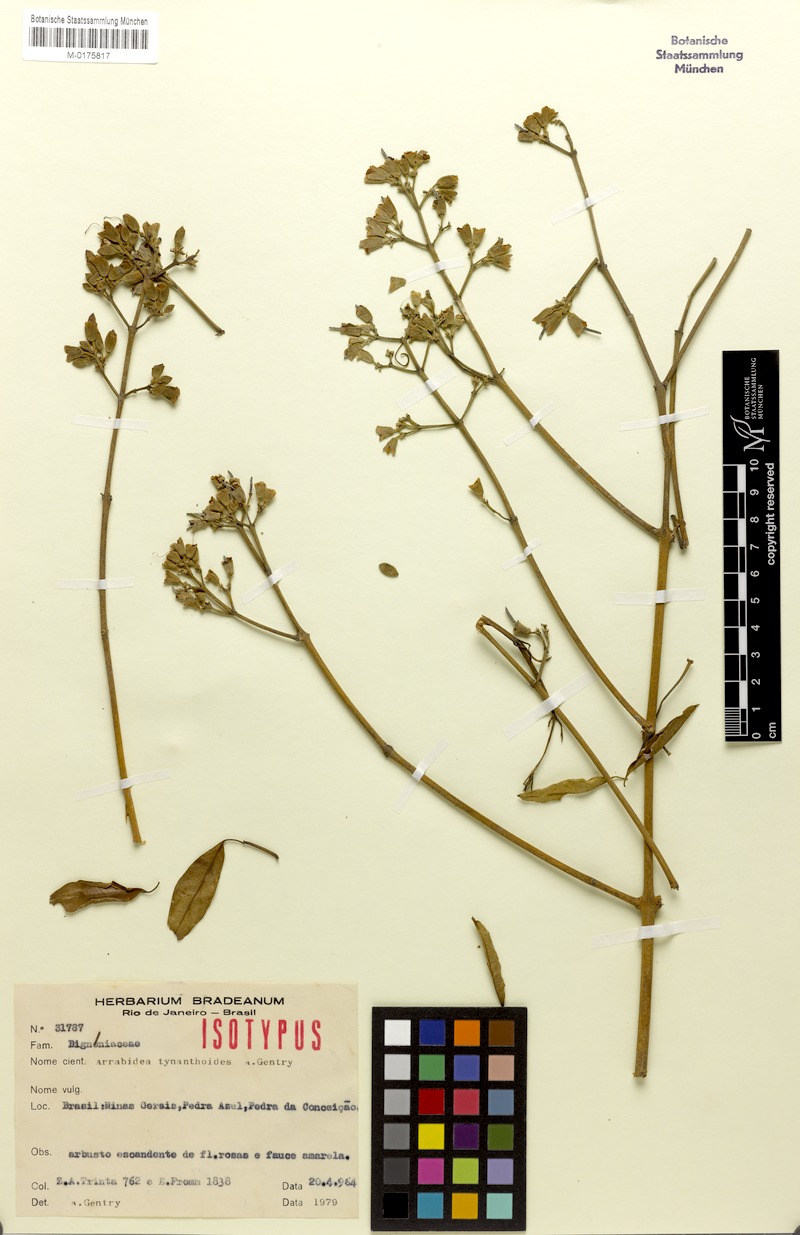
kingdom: Plantae
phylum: Tracheophyta
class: Magnoliopsida
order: Lamiales
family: Bignoniaceae
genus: Fridericia
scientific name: Fridericia tynanthoides
